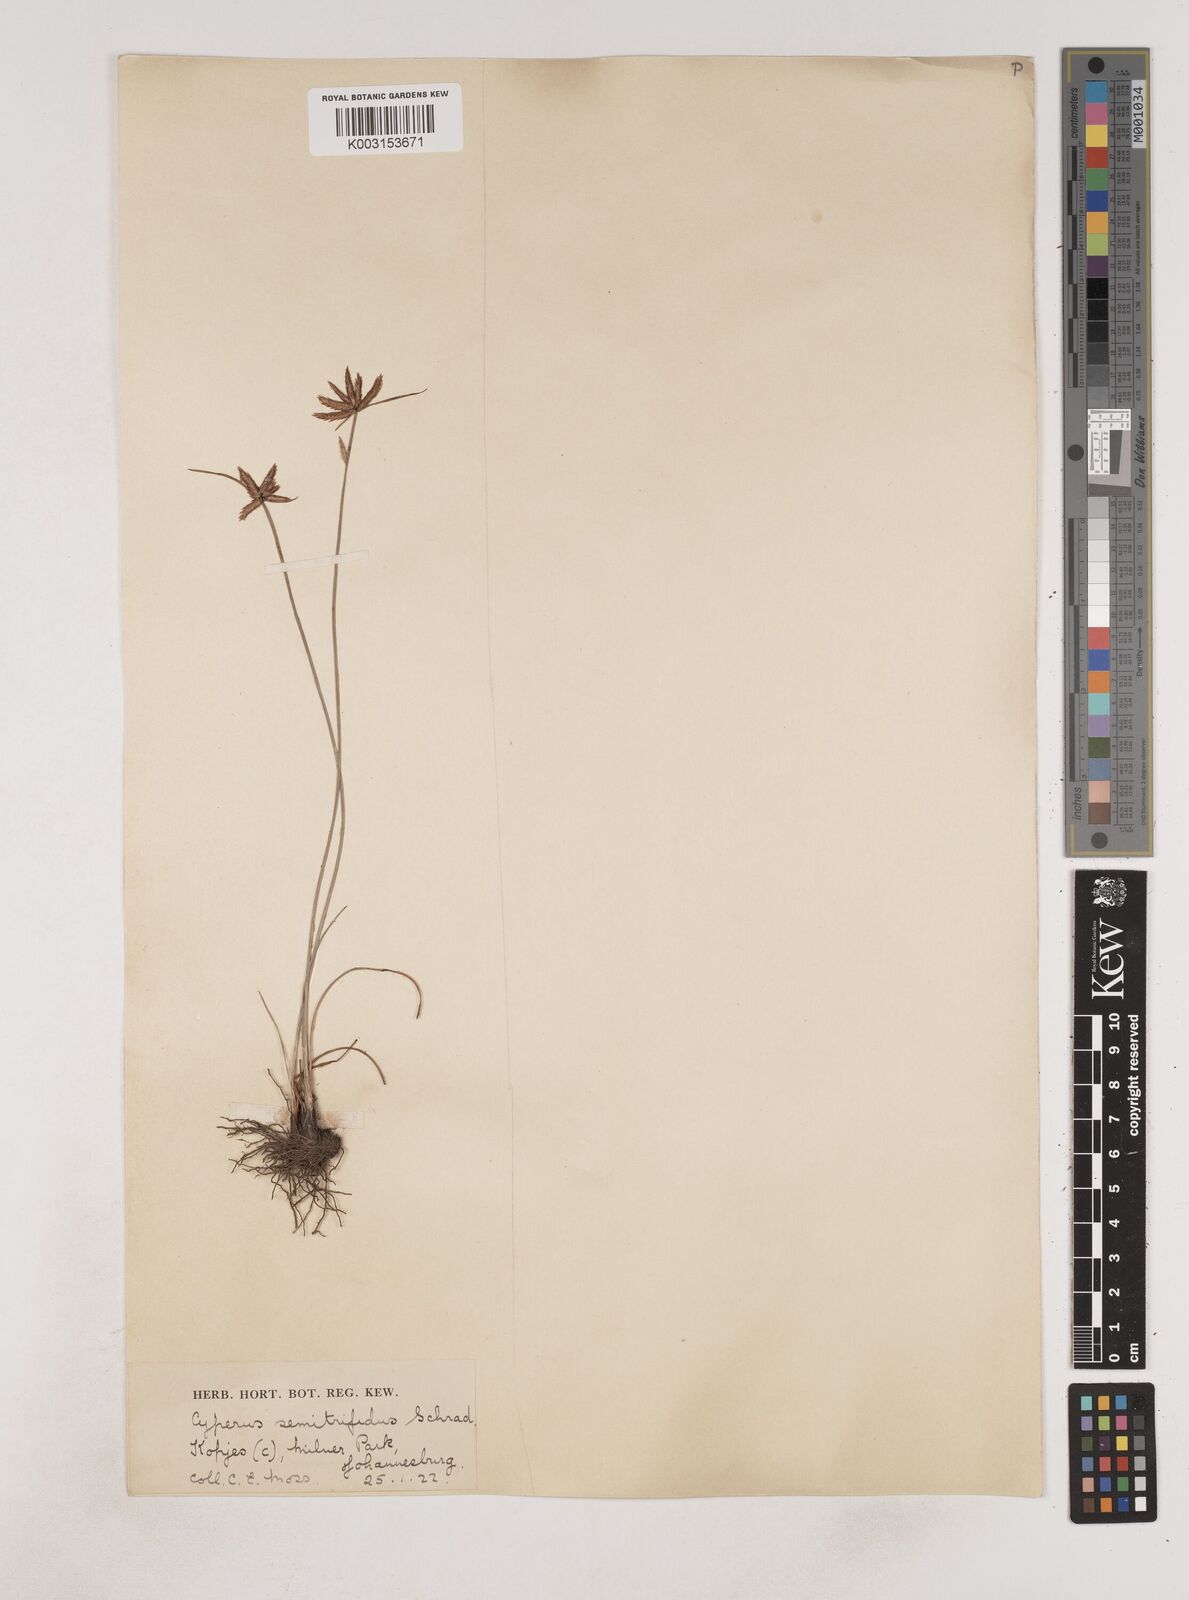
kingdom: Plantae
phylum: Tracheophyta
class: Liliopsida
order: Poales
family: Cyperaceae
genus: Cyperus
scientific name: Cyperus semitrifidus
